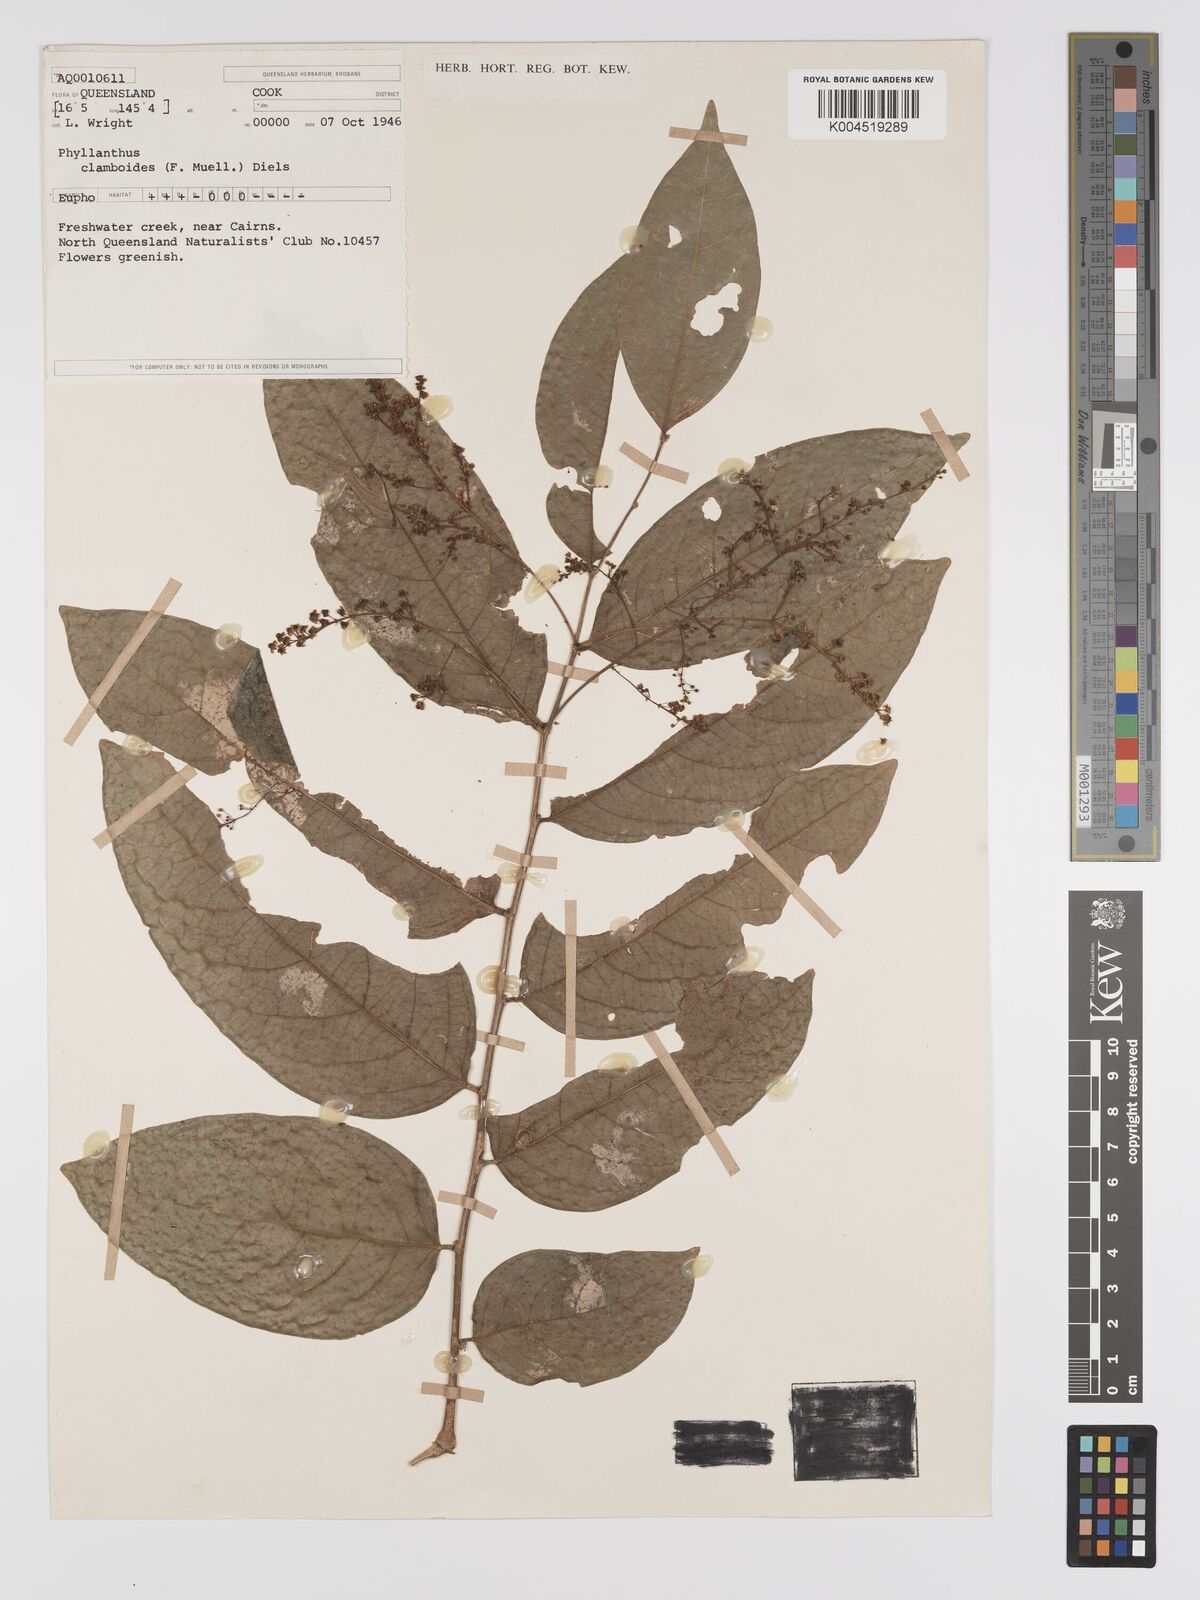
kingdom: Plantae
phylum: Tracheophyta
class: Magnoliopsida
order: Malpighiales
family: Phyllanthaceae
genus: Phyllanthus
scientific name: Phyllanthus clamboides
